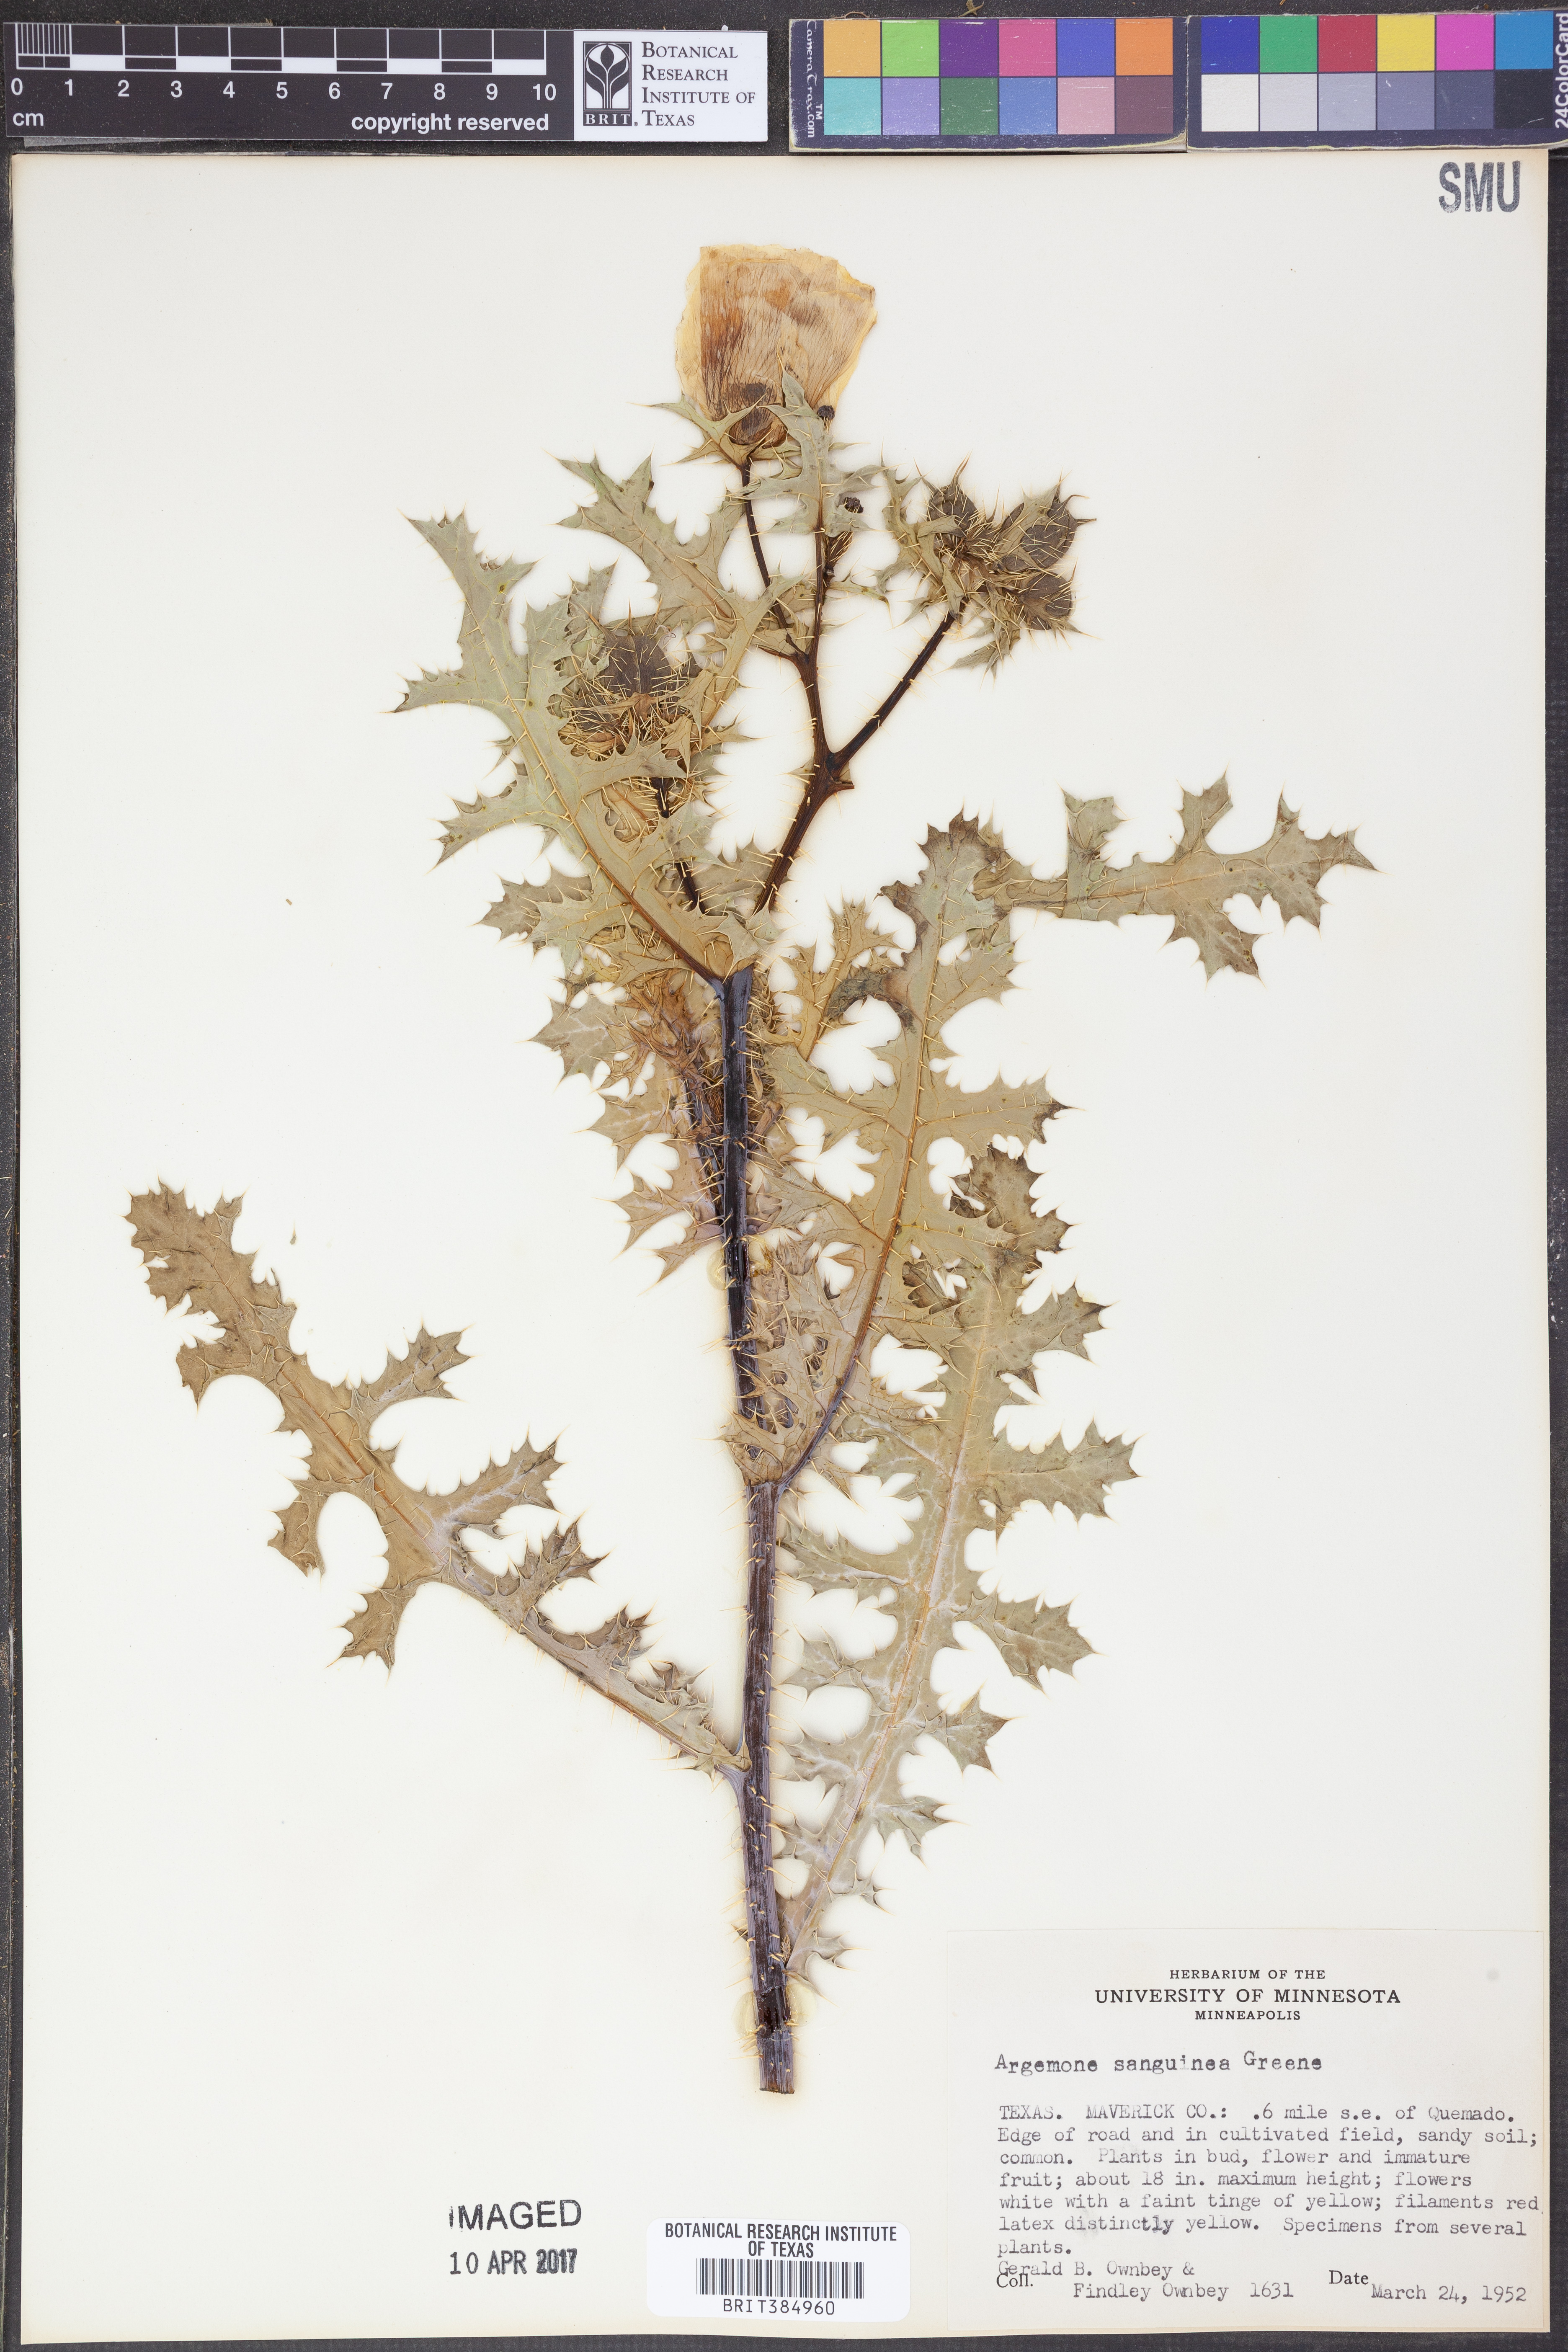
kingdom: Plantae
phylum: Tracheophyta
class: Magnoliopsida
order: Ranunculales
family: Papaveraceae
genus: Argemone
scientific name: Argemone sanguinea
